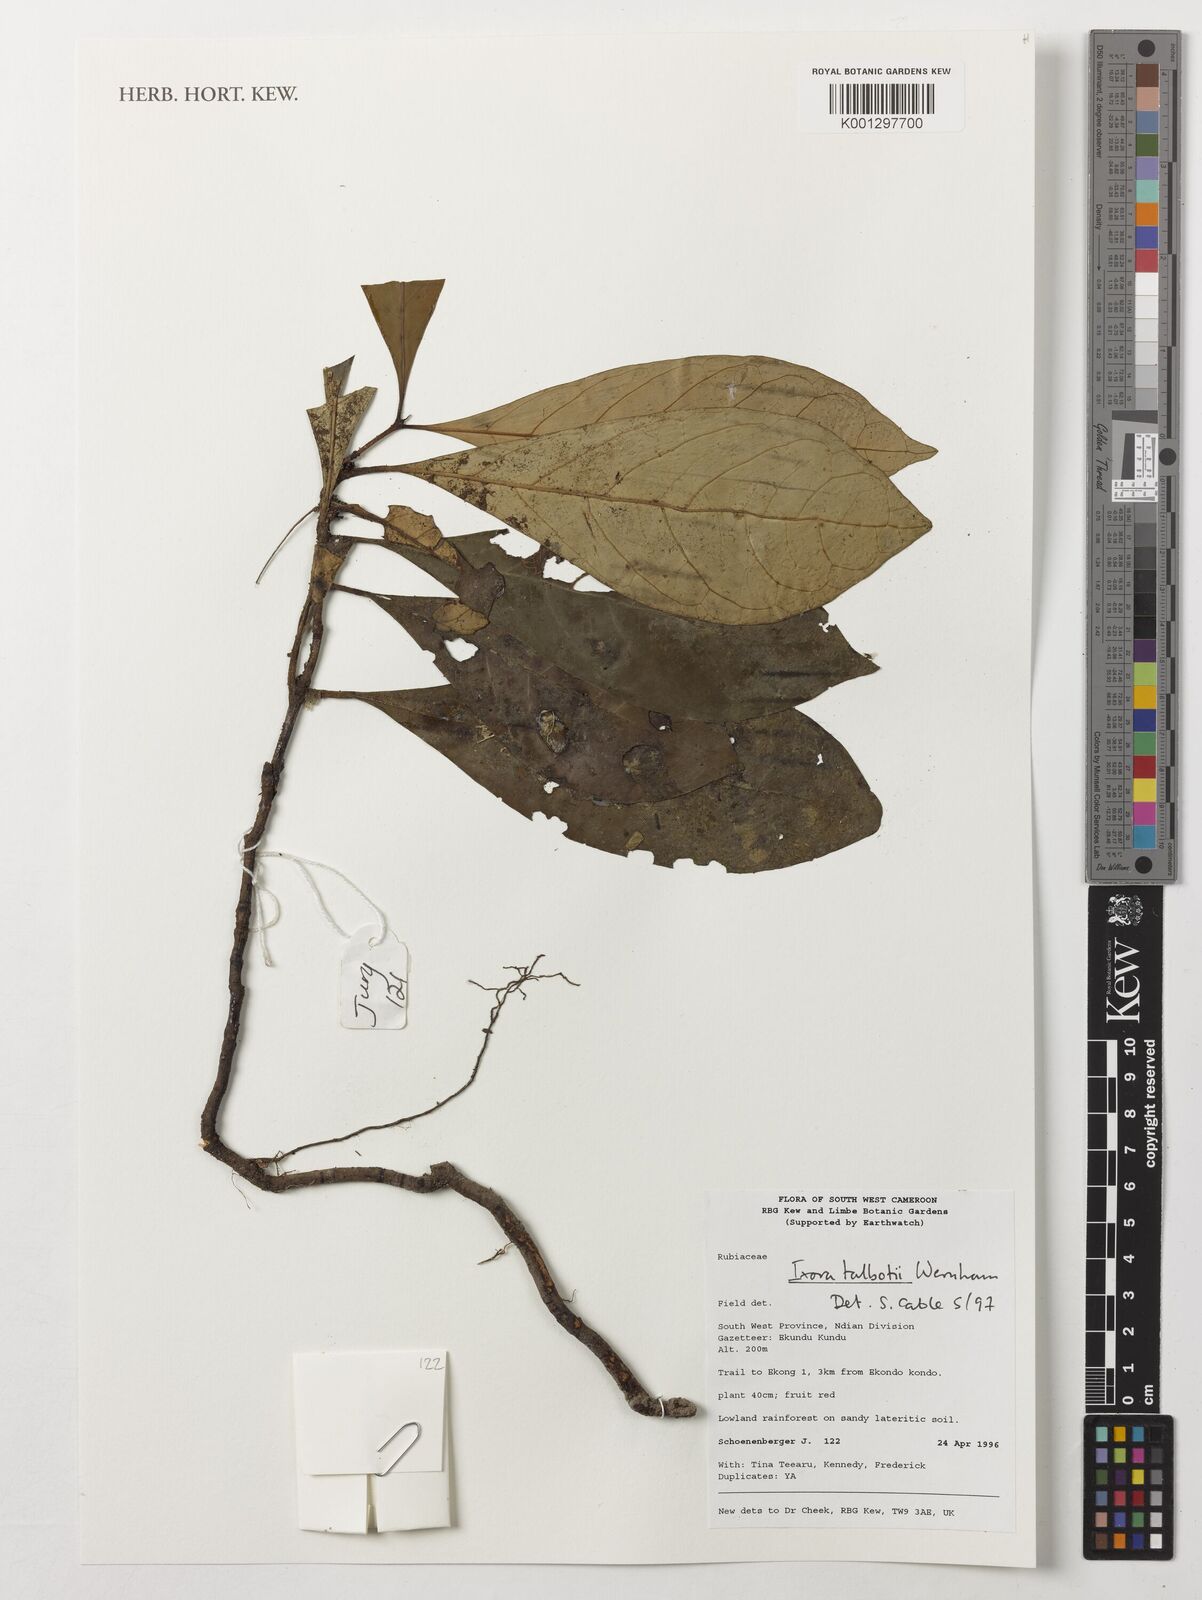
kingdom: Plantae
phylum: Tracheophyta
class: Magnoliopsida
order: Gentianales
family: Rubiaceae
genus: Ixora
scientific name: Ixora guineensis
